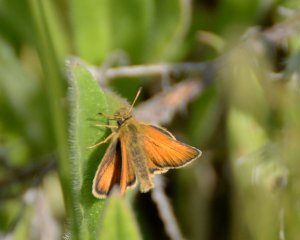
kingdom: Animalia
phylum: Arthropoda
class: Insecta
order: Lepidoptera
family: Hesperiidae
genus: Thymelicus
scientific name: Thymelicus lineola
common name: European Skipper
